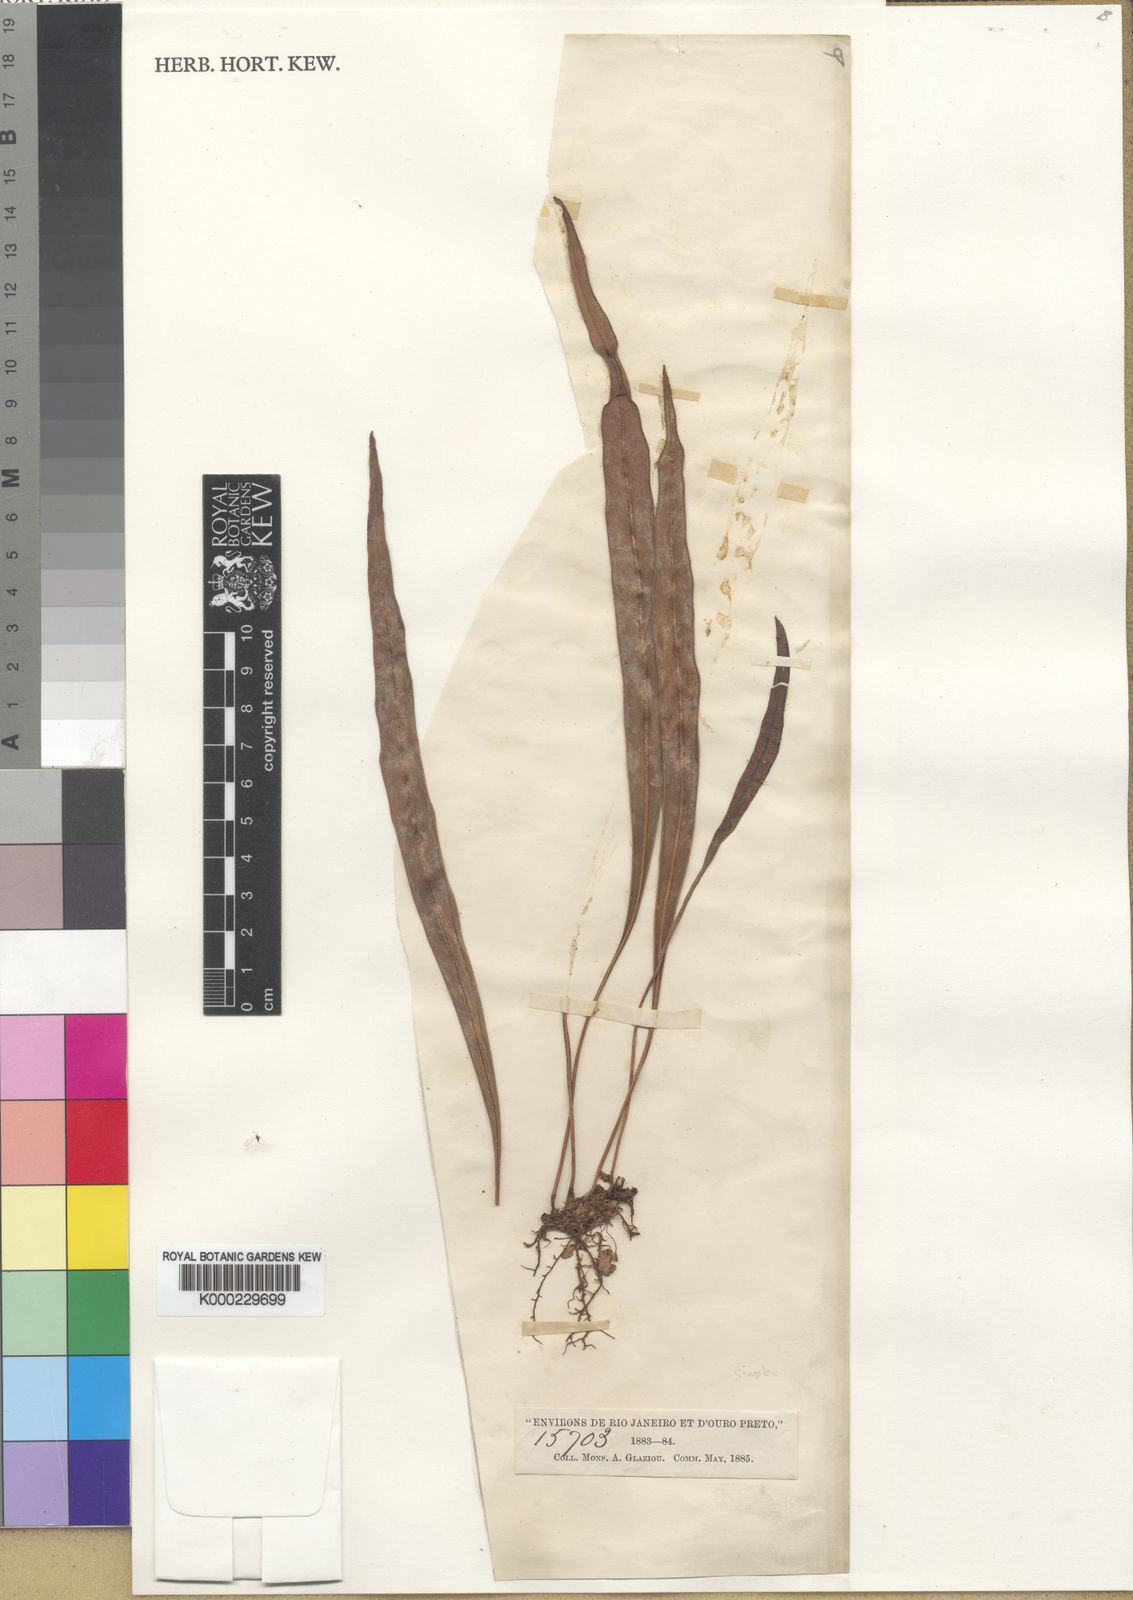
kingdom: Plantae
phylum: Tracheophyta
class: Polypodiopsida
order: Polypodiales
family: Dryopteridaceae
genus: Elaphoglossum
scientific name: Elaphoglossum glabellum
